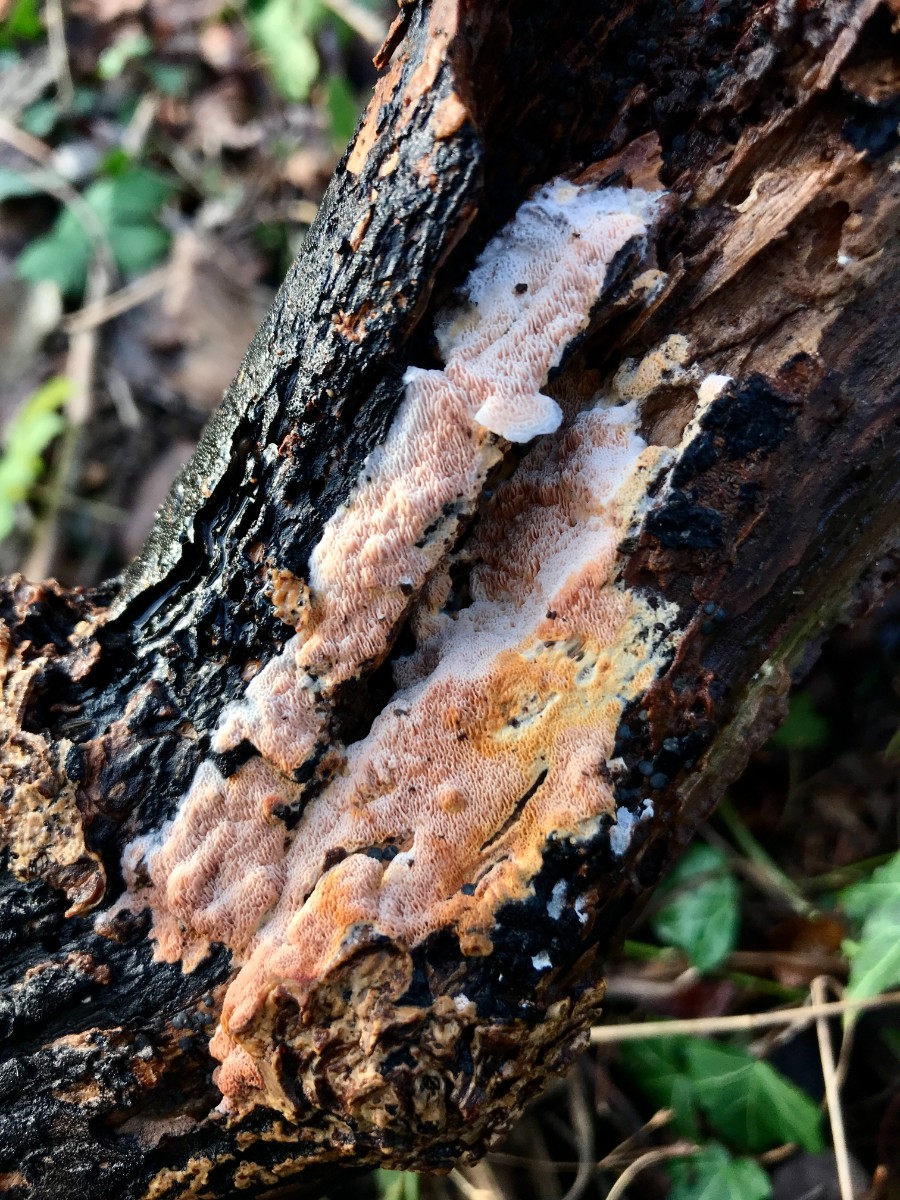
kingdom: Fungi
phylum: Basidiomycota
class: Agaricomycetes
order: Polyporales
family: Irpicaceae
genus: Ceriporia
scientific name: Ceriporia
